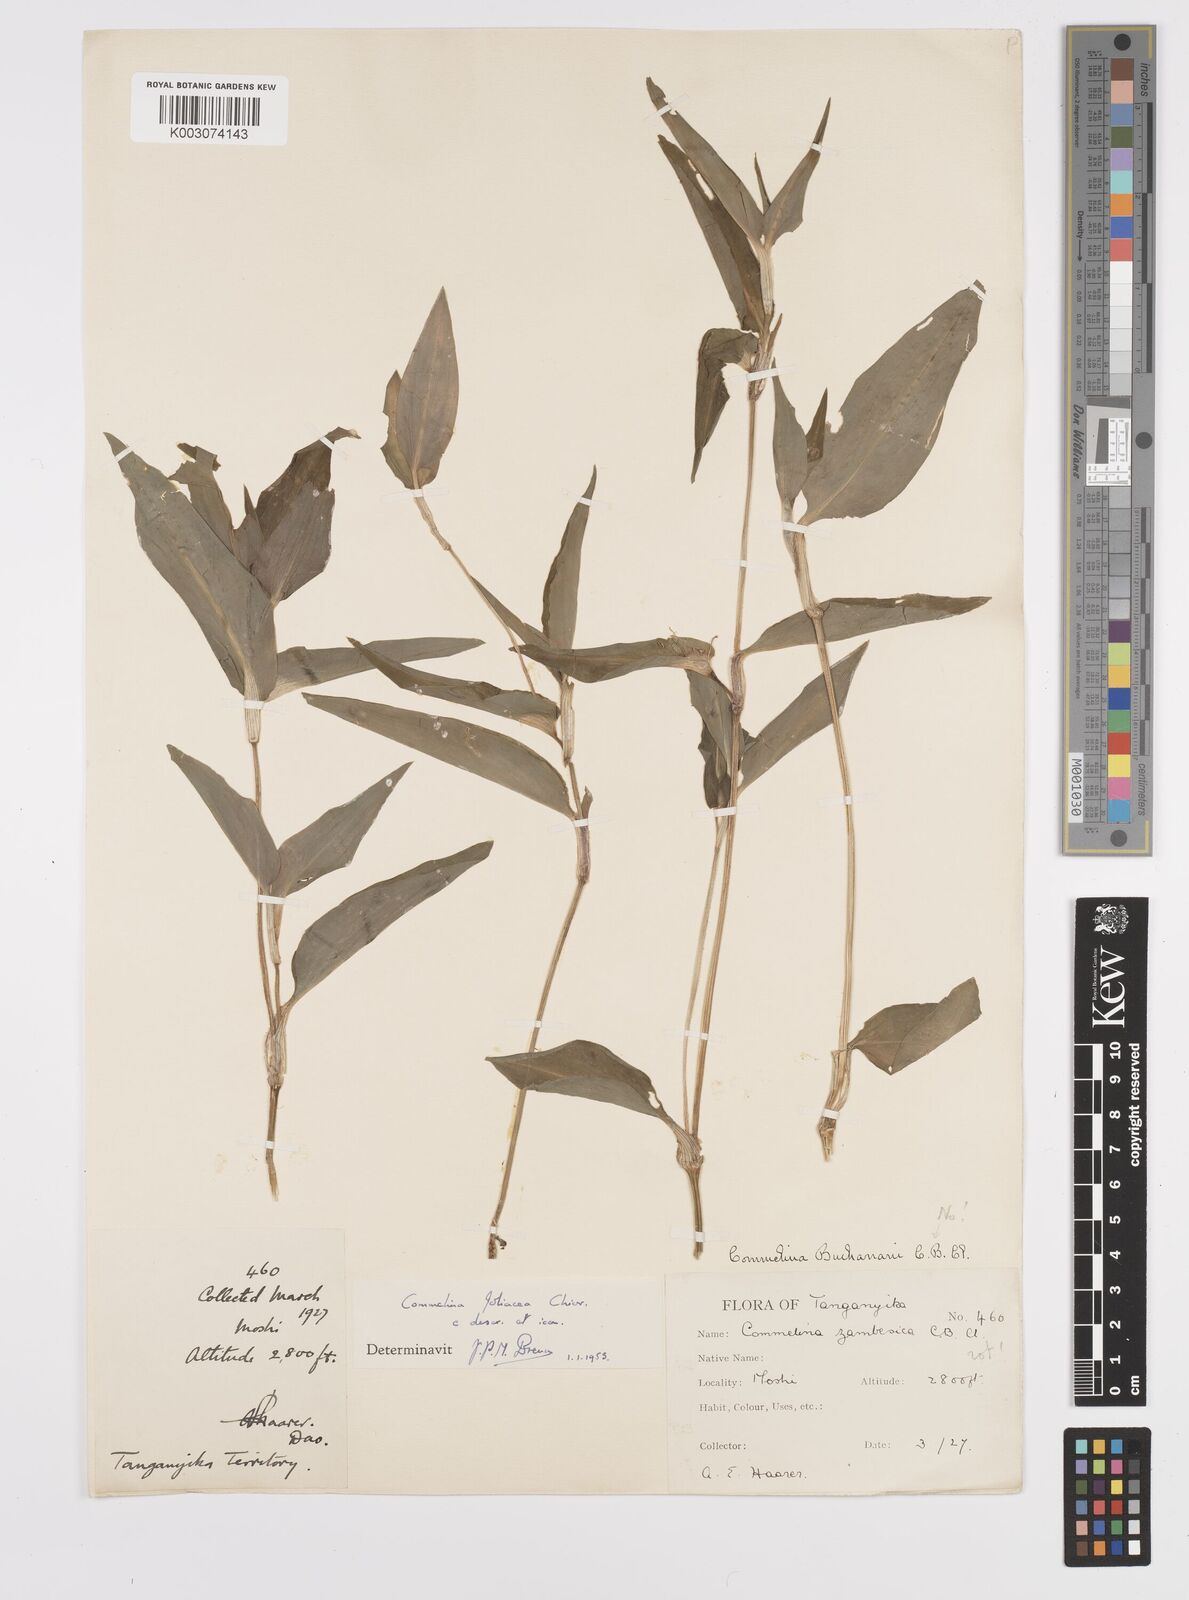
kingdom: Plantae
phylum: Tracheophyta
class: Liliopsida
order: Commelinales
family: Commelinaceae
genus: Commelina
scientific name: Commelina foliacea
